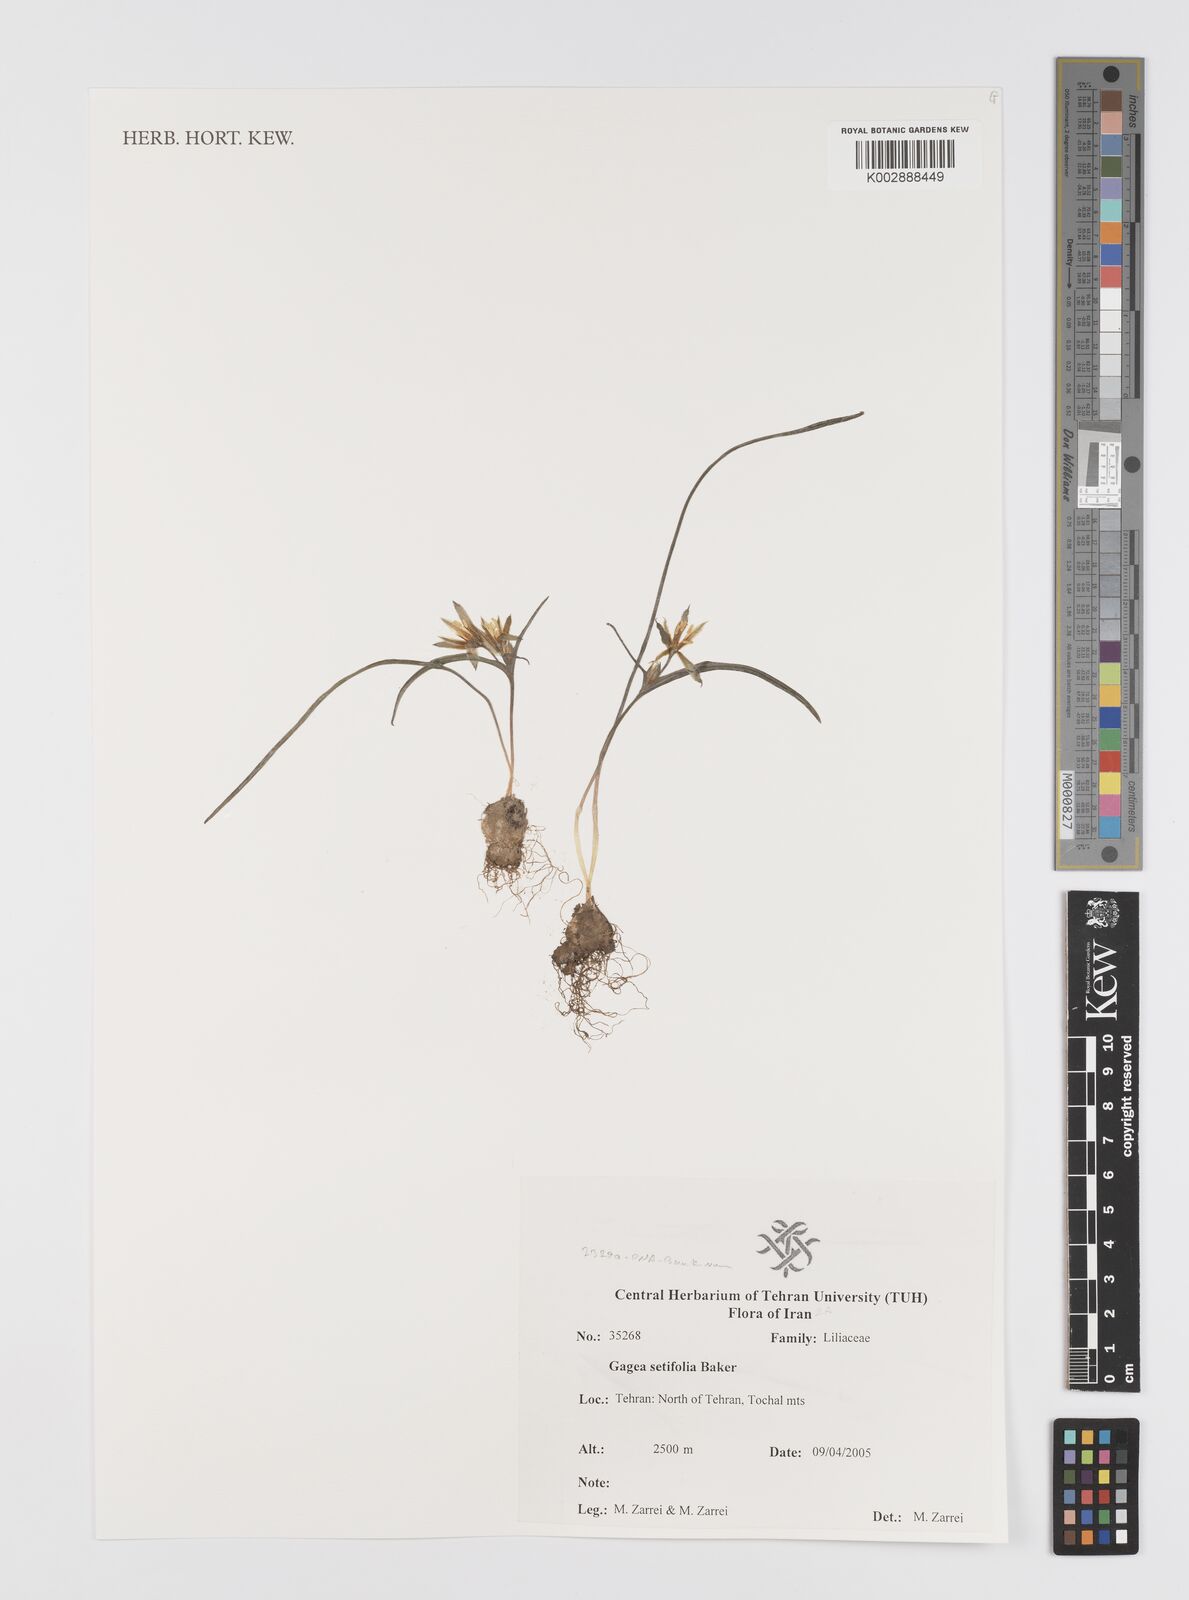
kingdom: Plantae
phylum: Tracheophyta
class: Liliopsida
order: Liliales
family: Liliaceae
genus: Gagea
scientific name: Gagea setifolia
